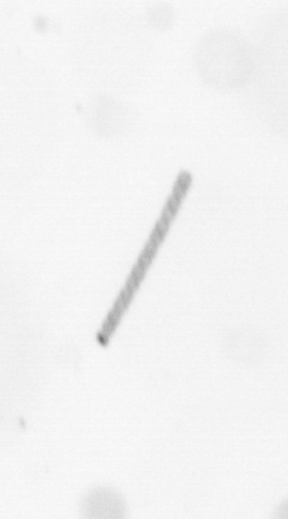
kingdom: Chromista
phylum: Ochrophyta
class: Bacillariophyceae
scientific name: Bacillariophyceae
